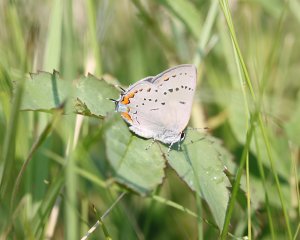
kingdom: Animalia
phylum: Arthropoda
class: Insecta
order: Lepidoptera
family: Lycaenidae
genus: Strymon
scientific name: Strymon acadica
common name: Acadian Hairstreak
